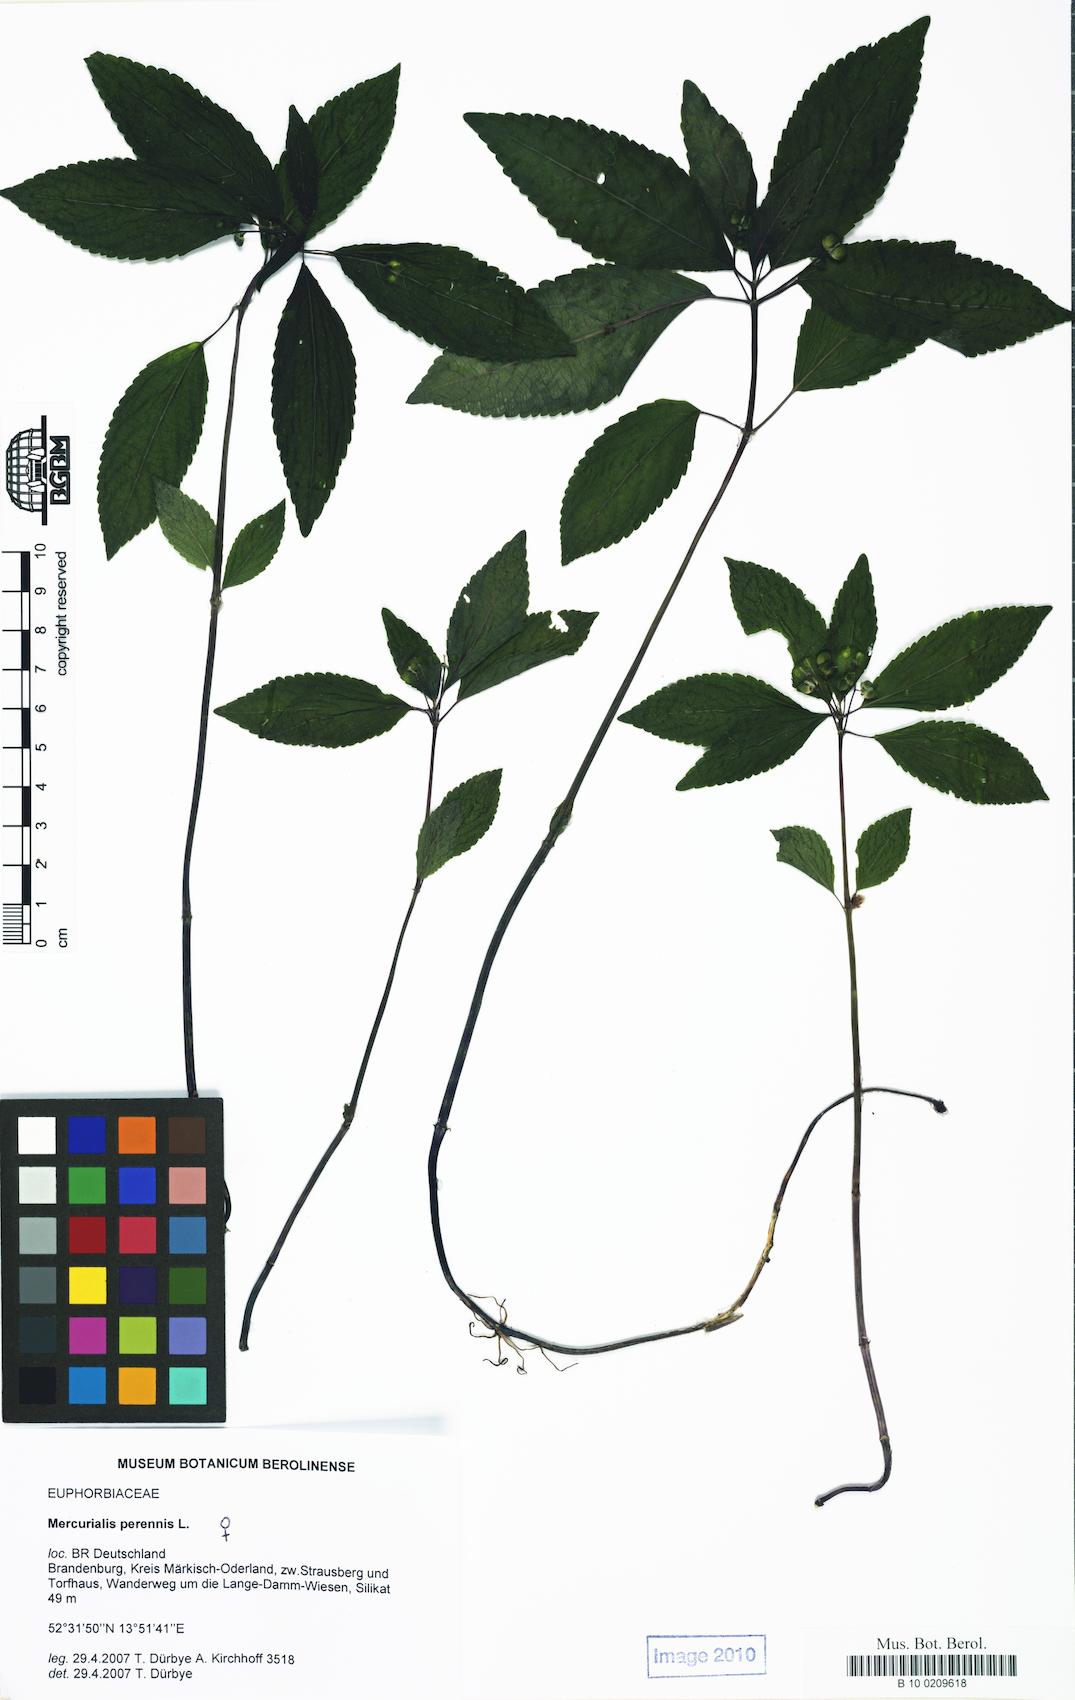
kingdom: Plantae
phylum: Tracheophyta
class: Magnoliopsida
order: Malpighiales
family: Euphorbiaceae
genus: Mercurialis
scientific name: Mercurialis perennis
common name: Dog mercury
